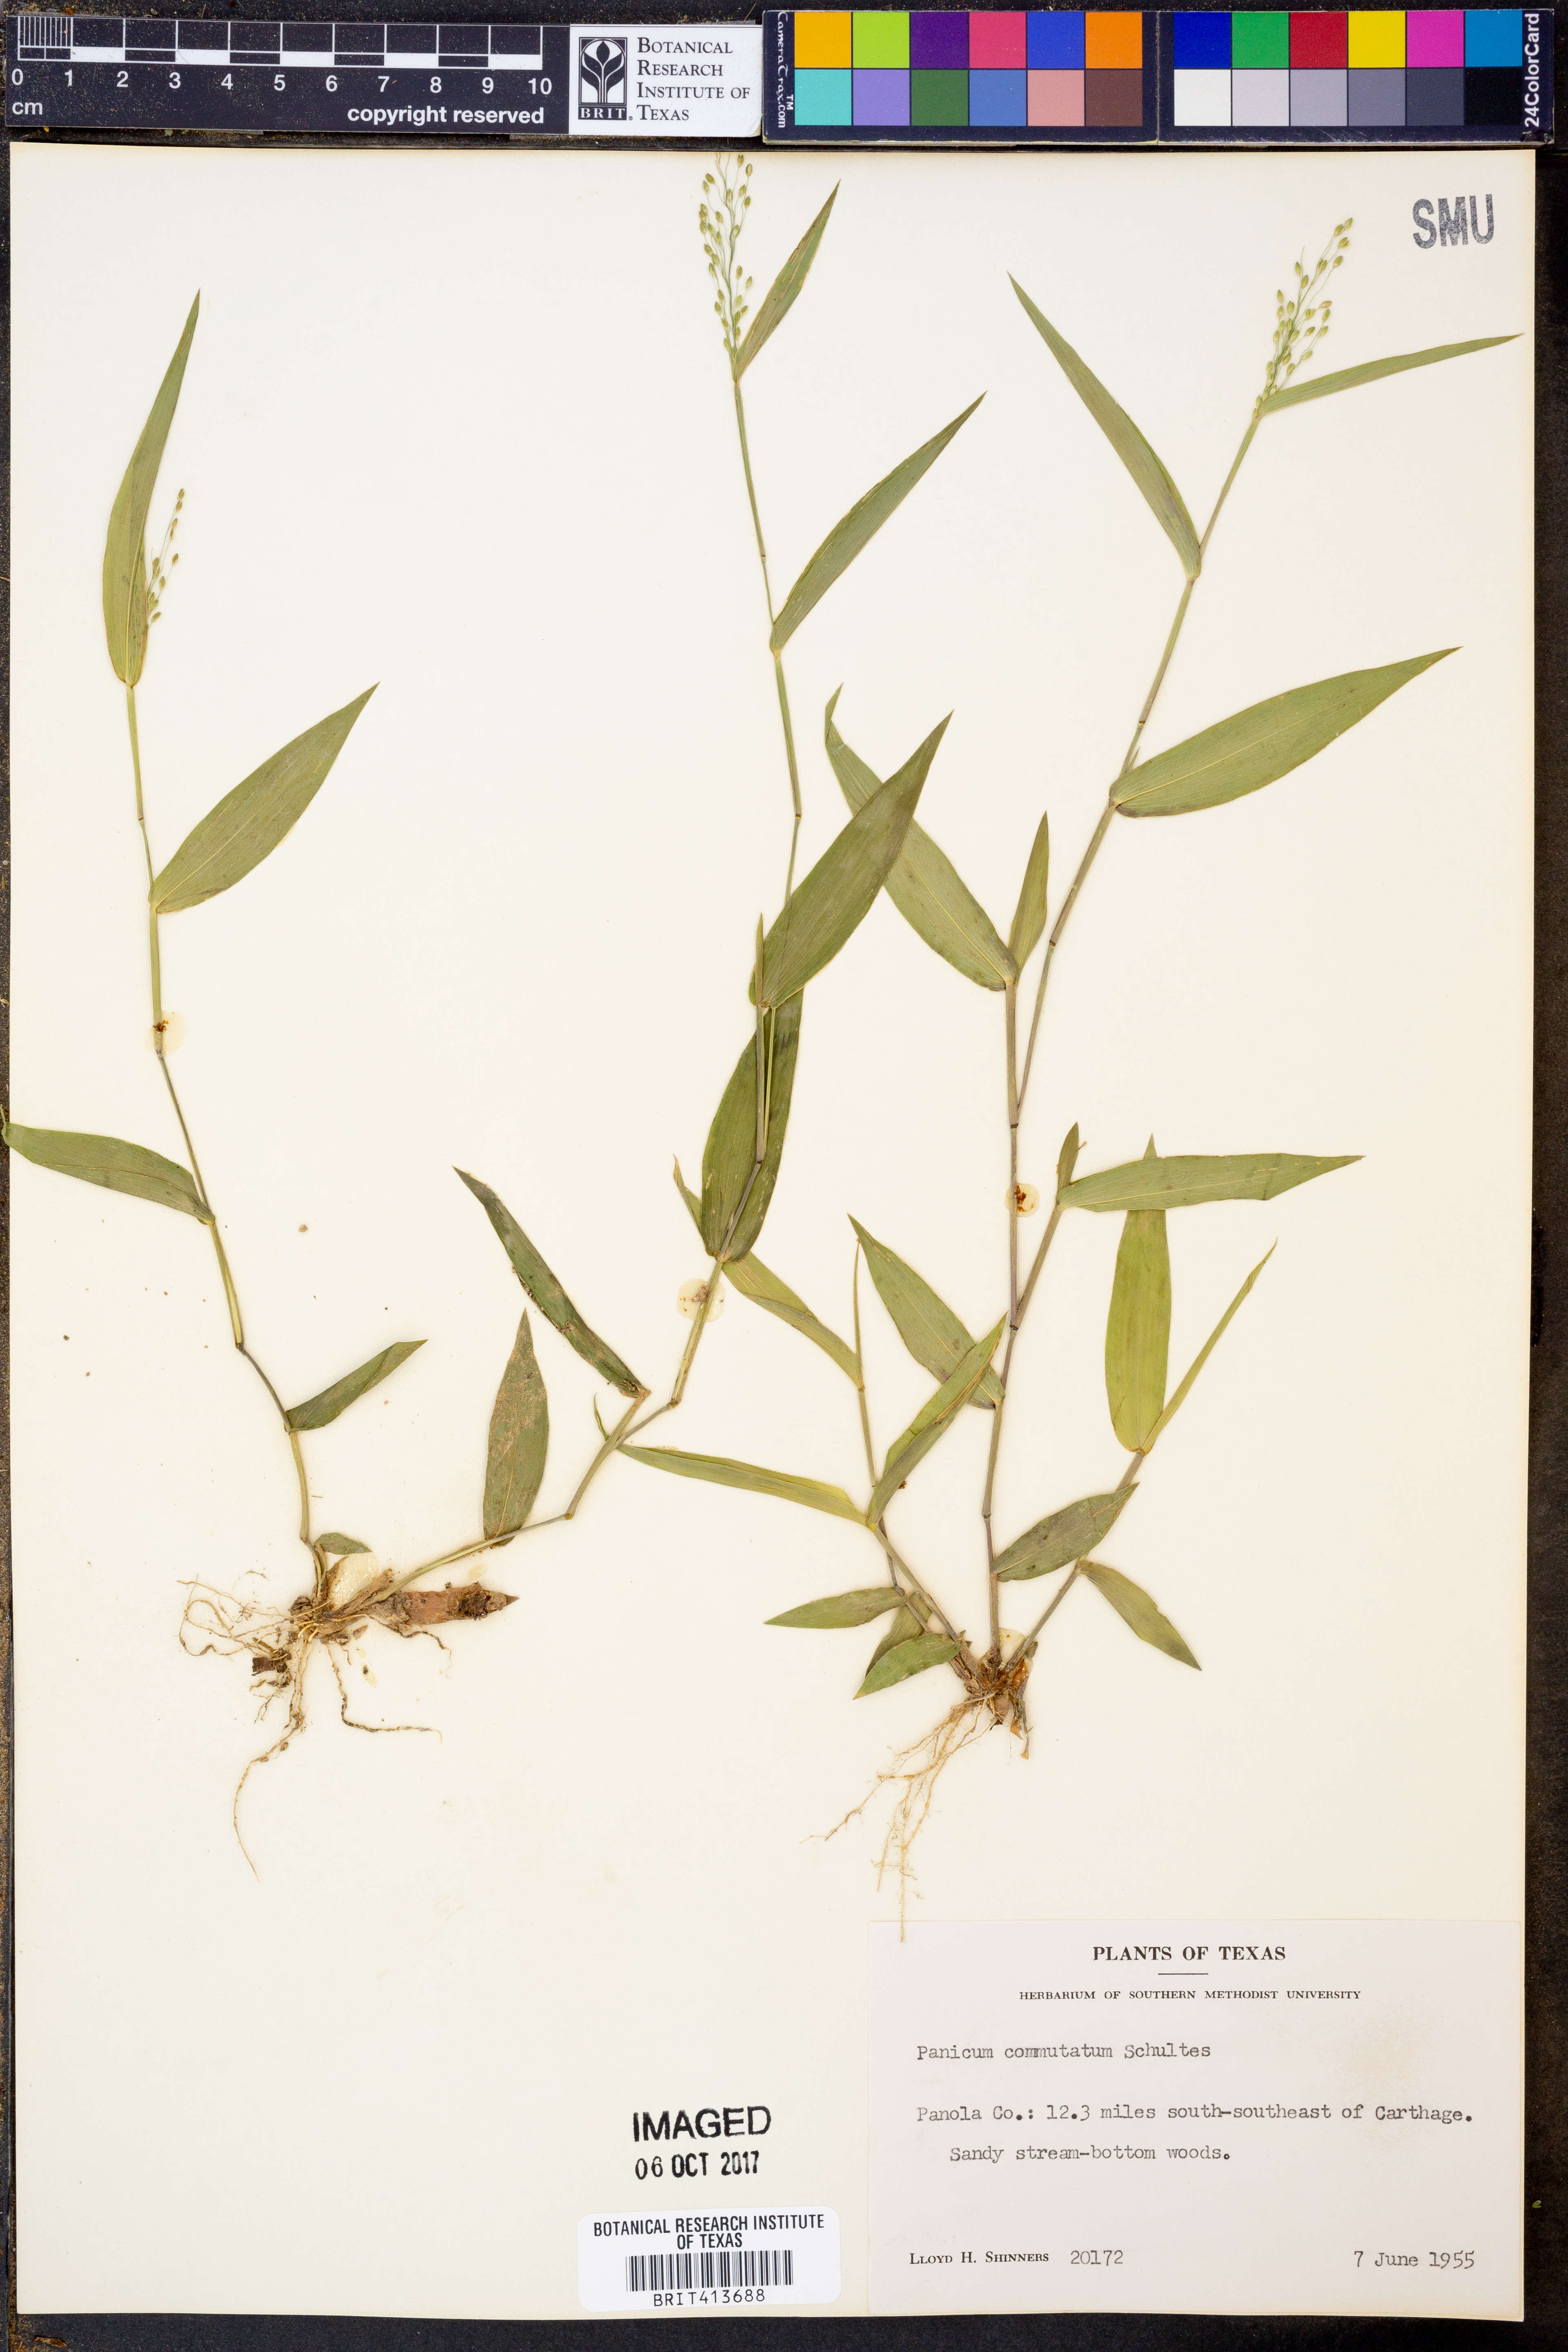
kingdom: Plantae
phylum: Tracheophyta
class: Liliopsida
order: Poales
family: Poaceae
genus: Dichanthelium
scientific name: Dichanthelium commutatum
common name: Variable witchgrass
